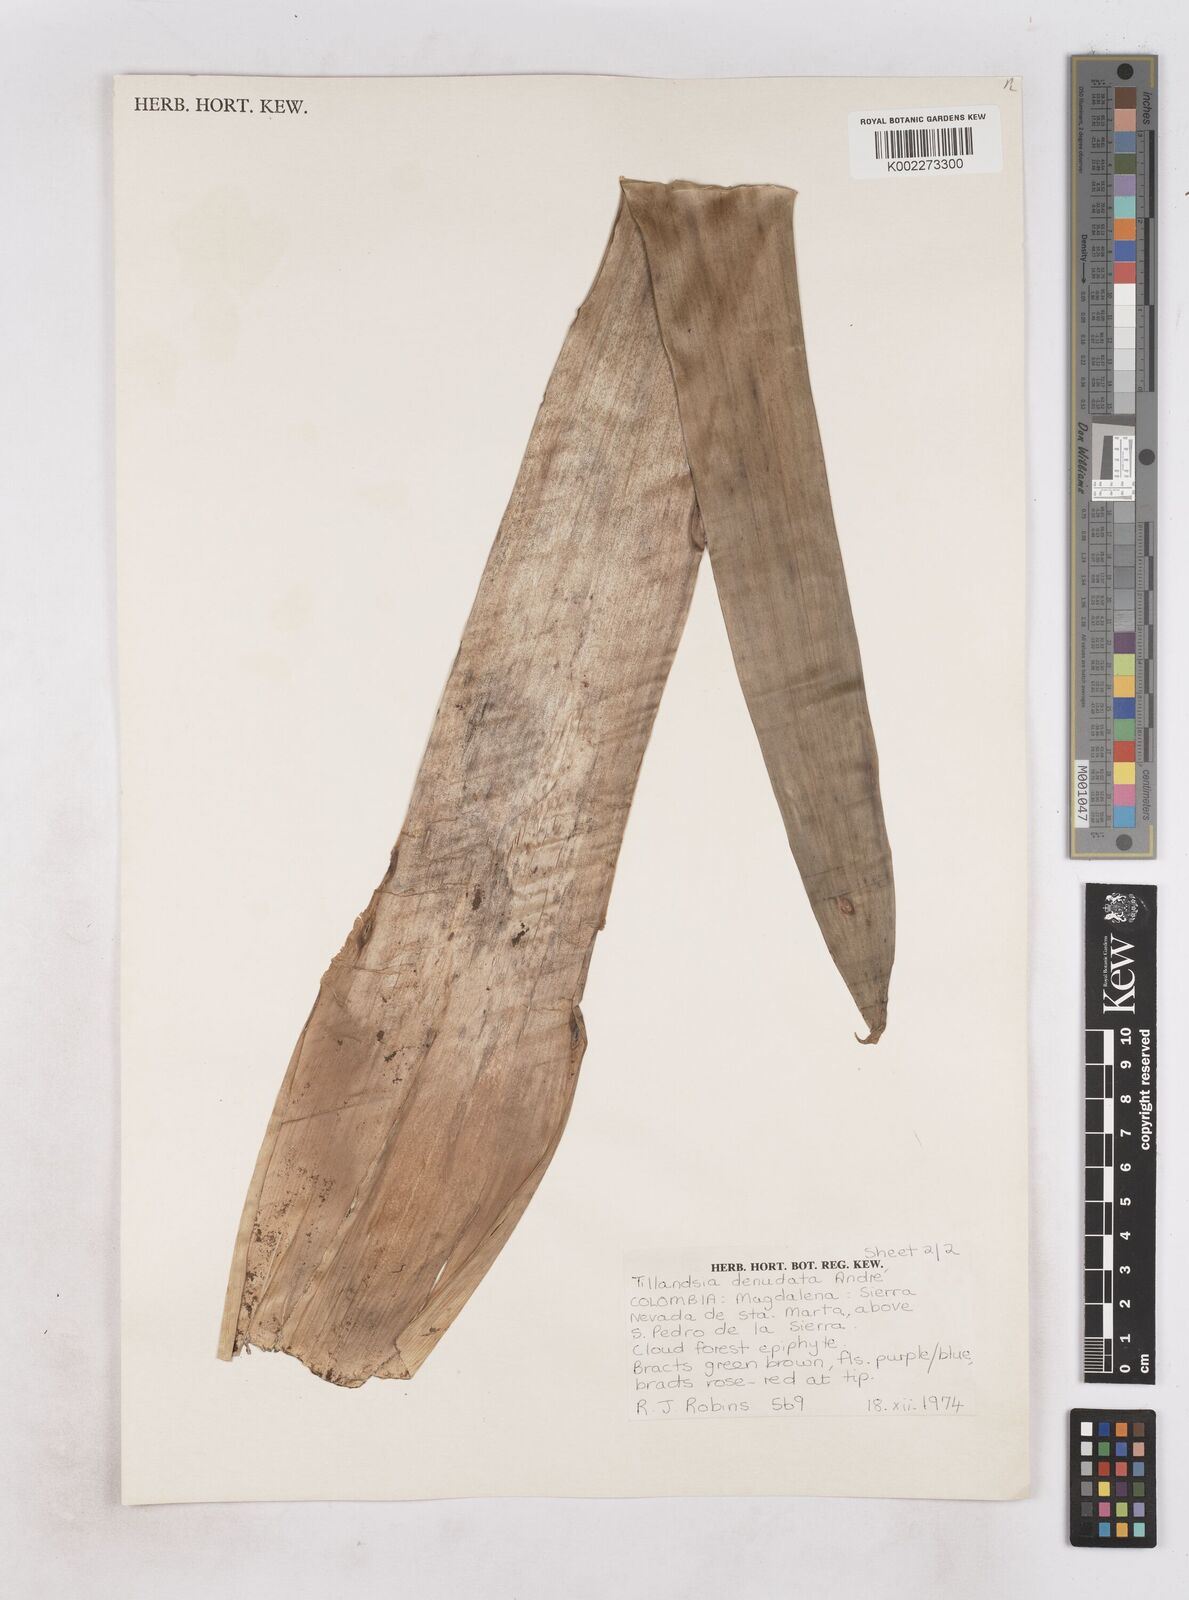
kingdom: Plantae
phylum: Tracheophyta
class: Liliopsida
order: Poales
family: Bromeliaceae
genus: Tillandsia
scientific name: Tillandsia denudata
